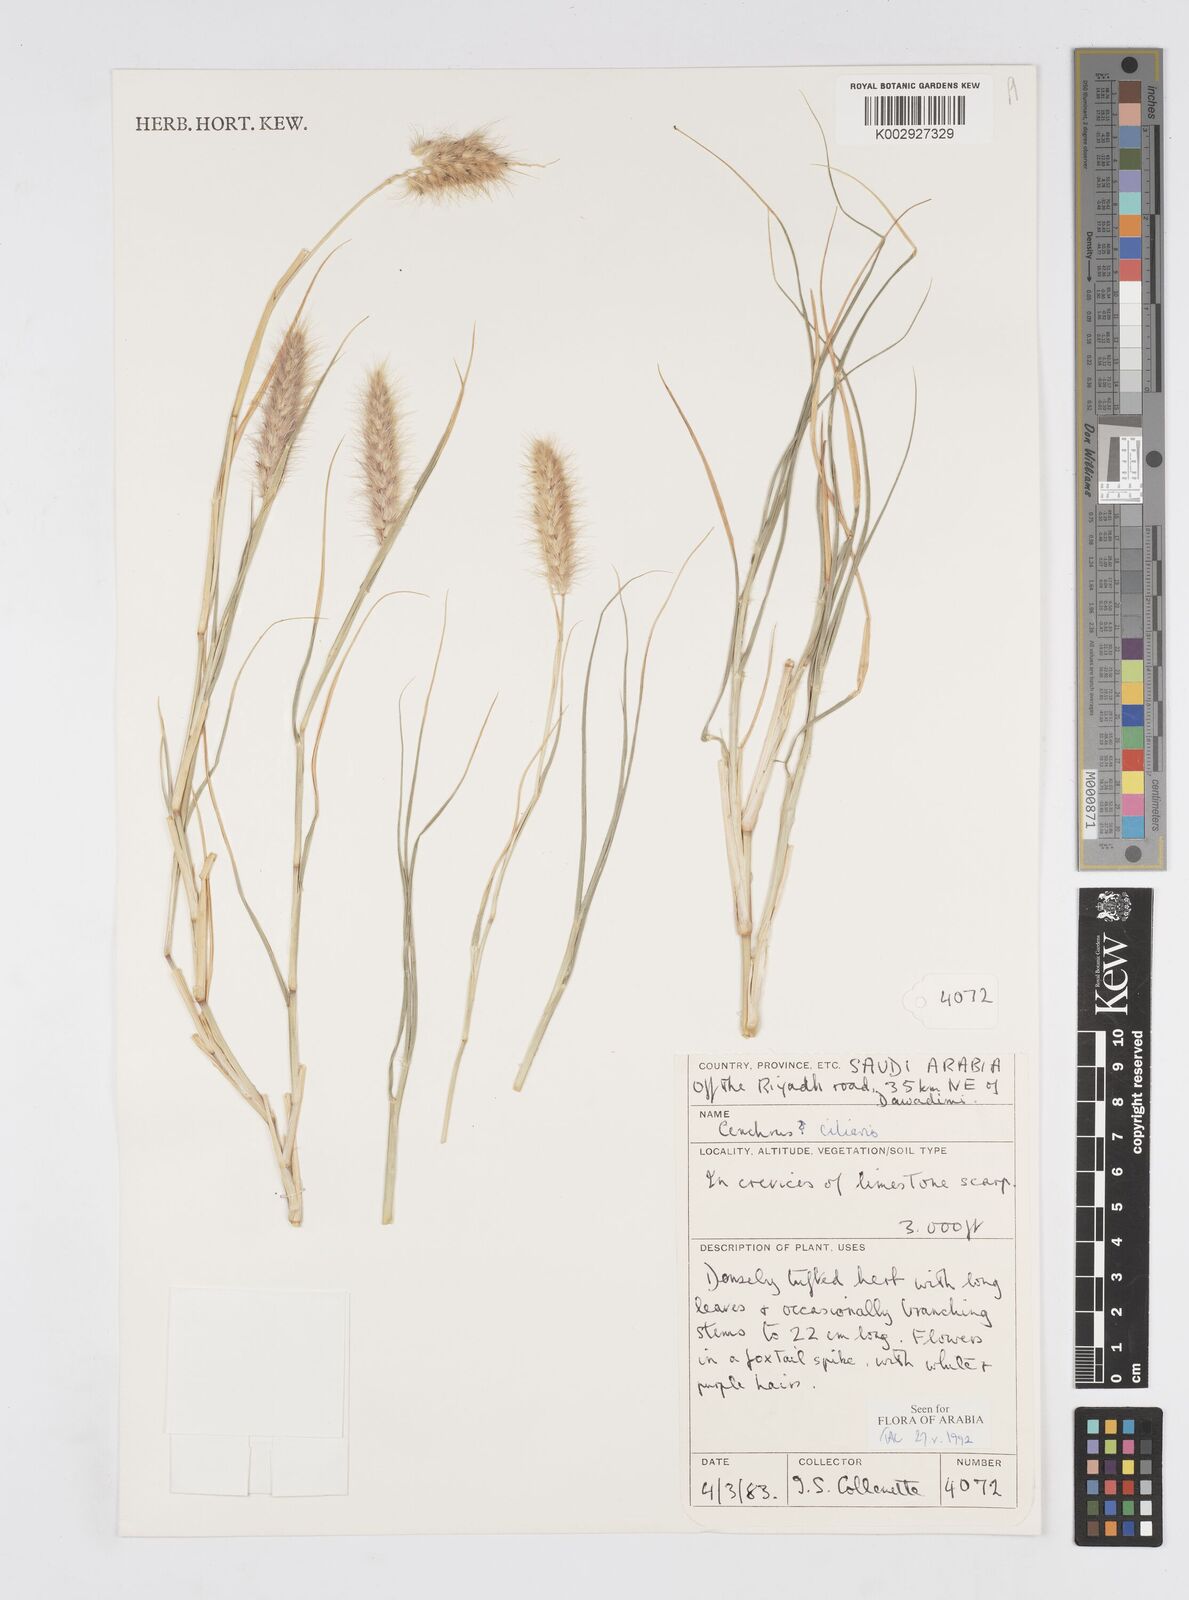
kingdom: Plantae
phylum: Tracheophyta
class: Liliopsida
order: Poales
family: Poaceae
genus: Cenchrus
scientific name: Cenchrus ciliaris
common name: Buffelgrass
